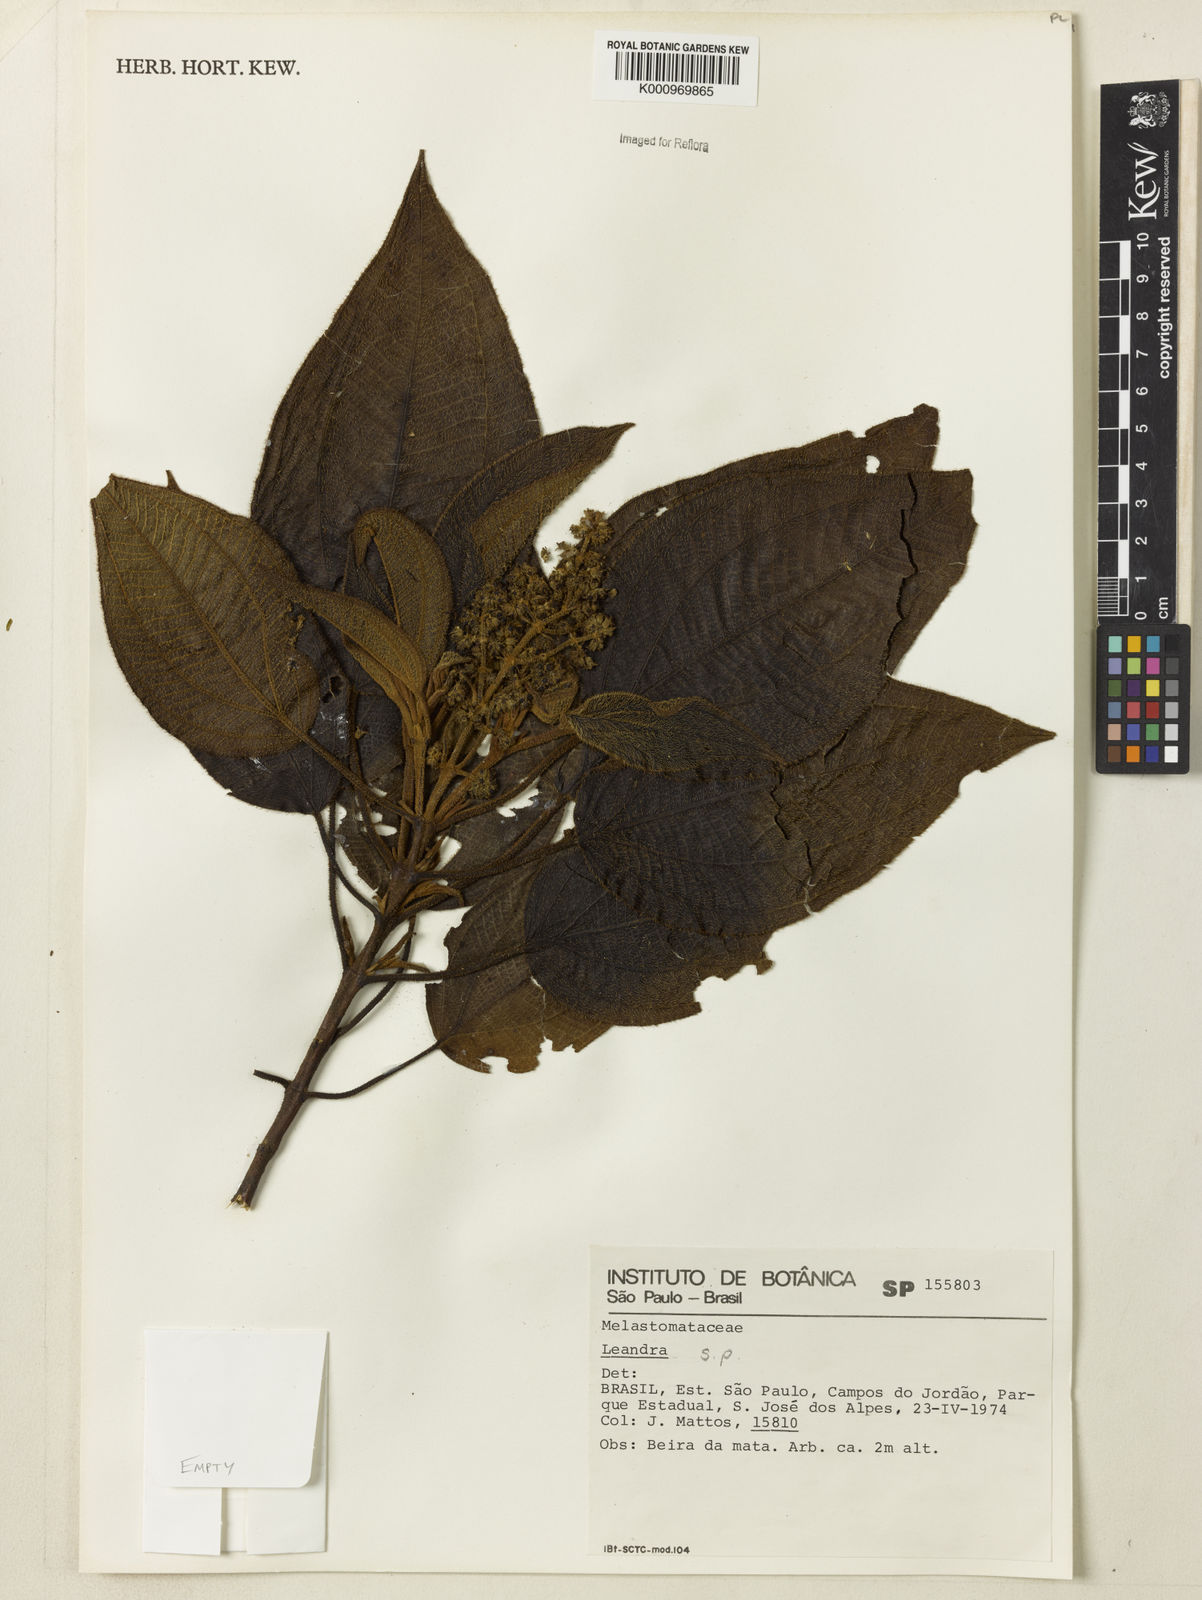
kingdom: Plantae
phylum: Tracheophyta
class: Magnoliopsida
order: Myrtales
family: Melastomataceae
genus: Miconia
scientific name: Miconia
